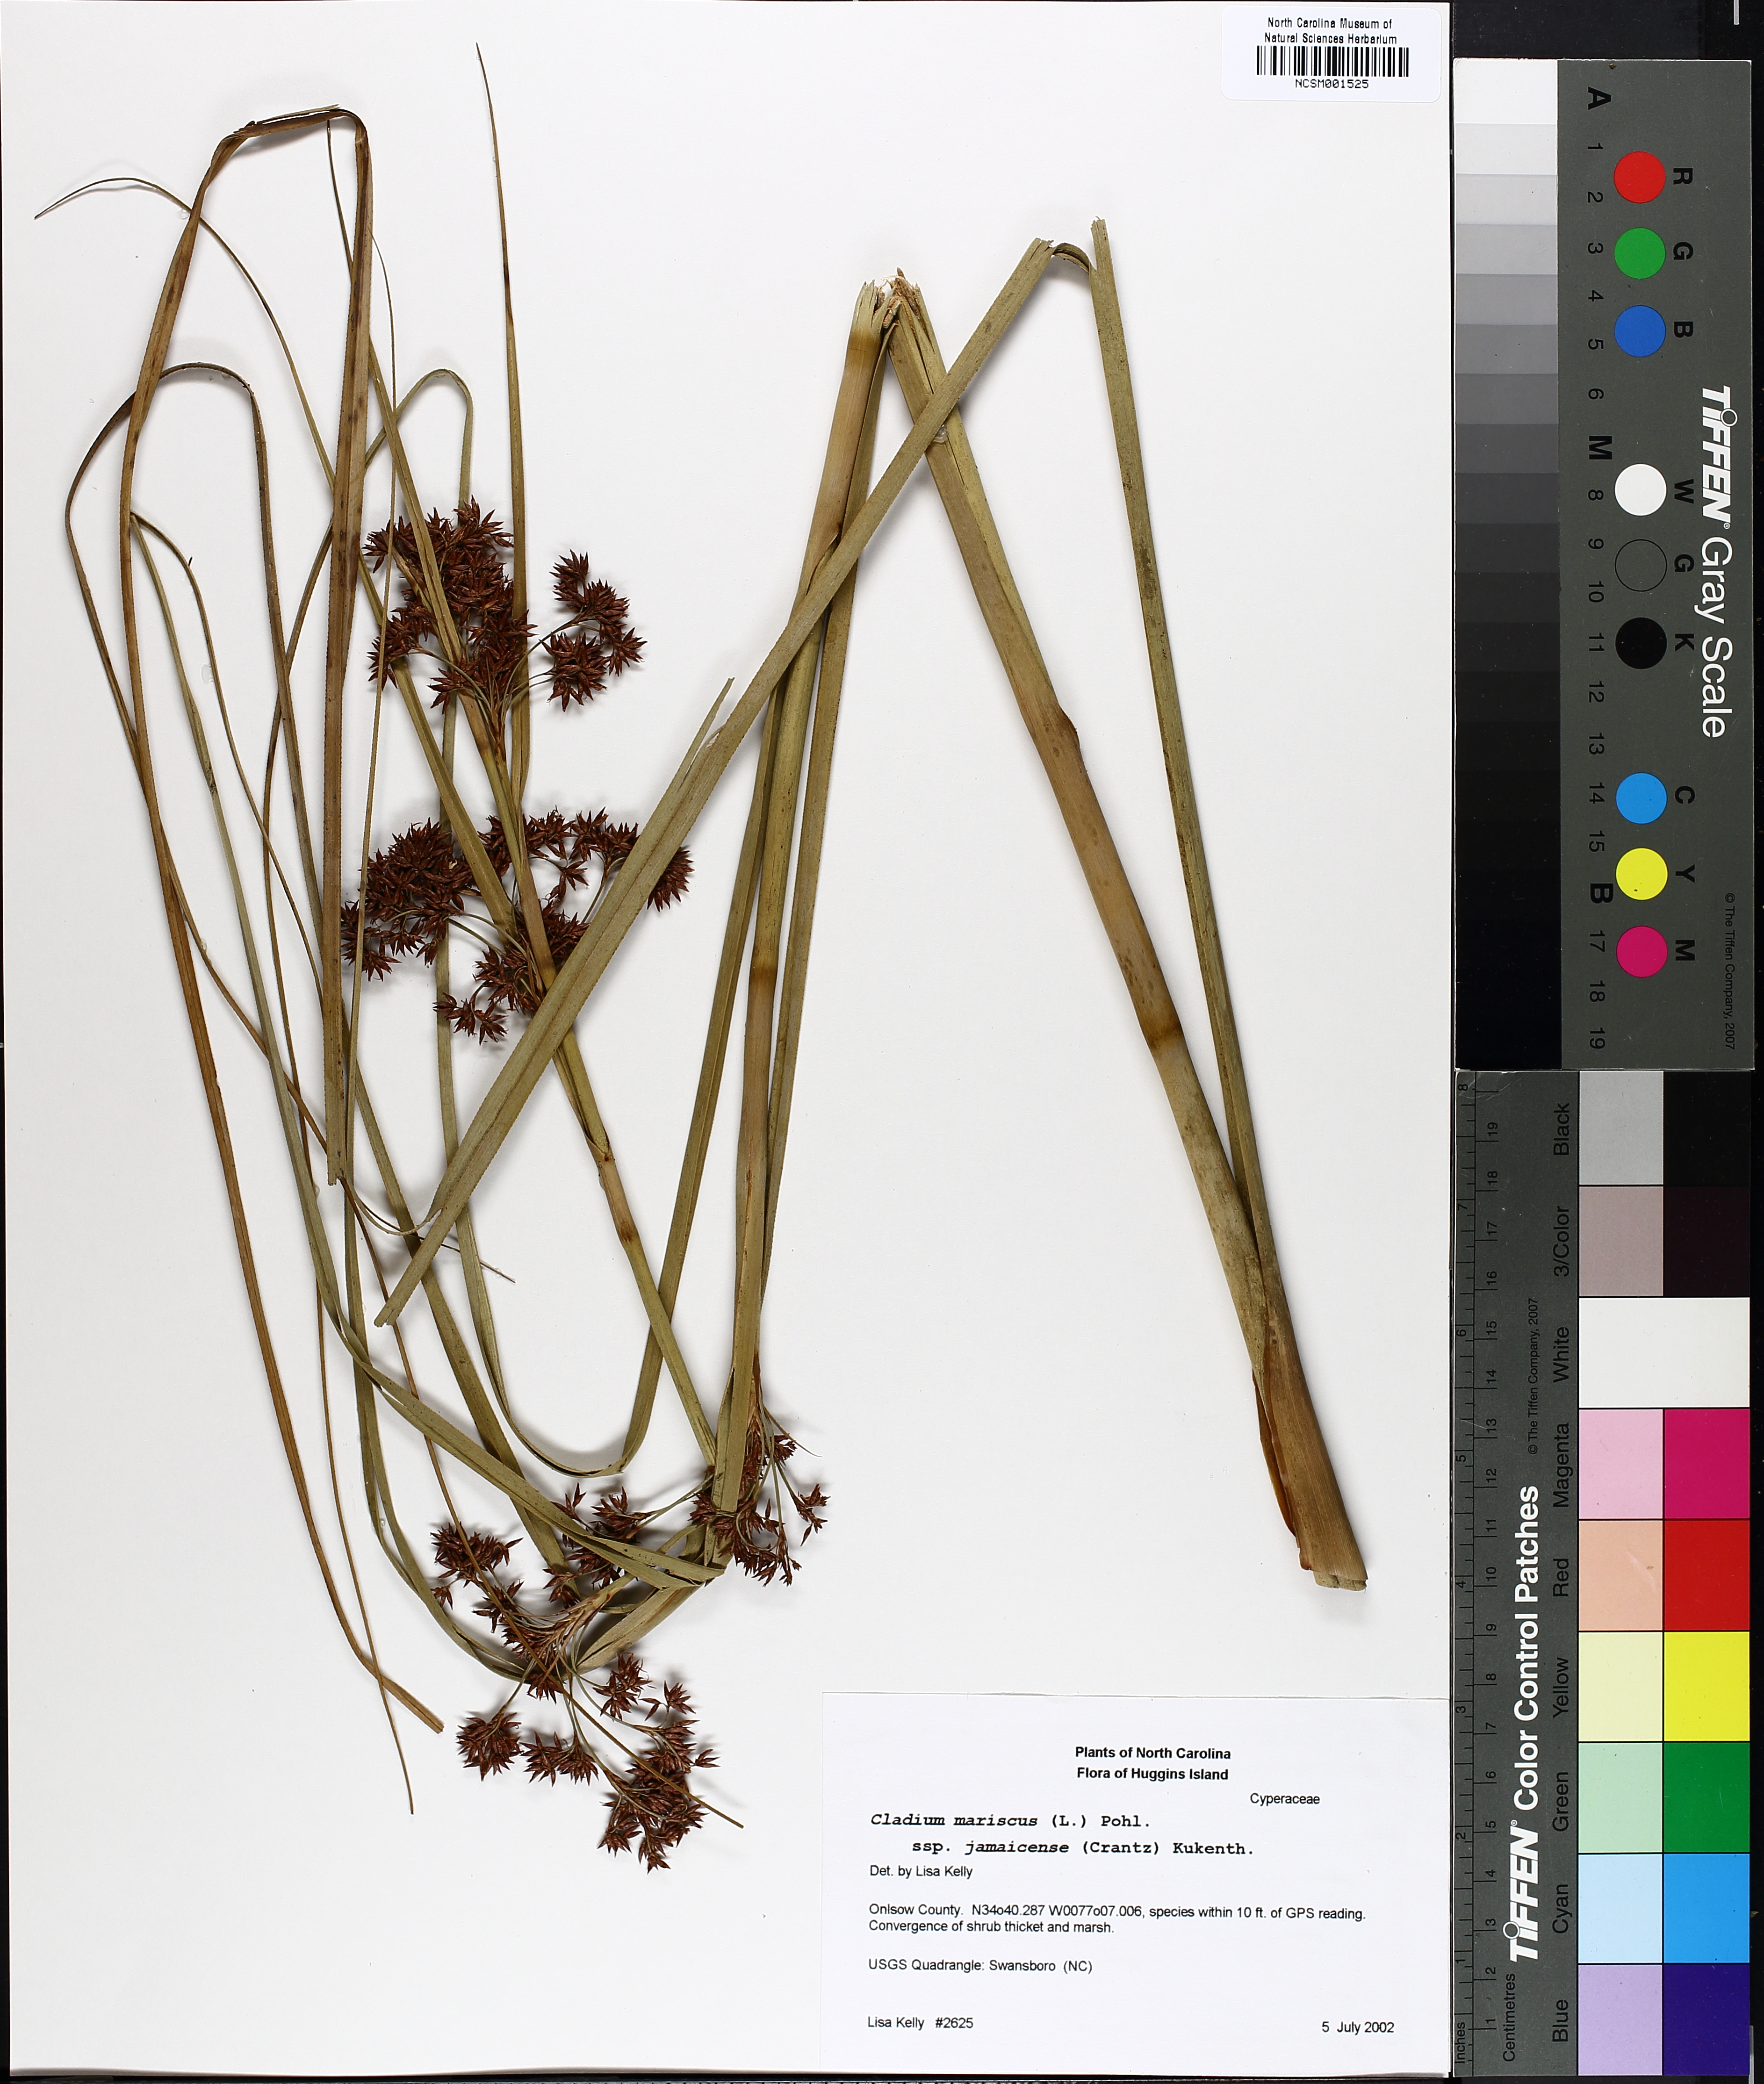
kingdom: Plantae
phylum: Tracheophyta
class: Liliopsida
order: Poales
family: Cyperaceae
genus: Cladium
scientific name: Cladium mariscus
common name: Great fen-sedge
